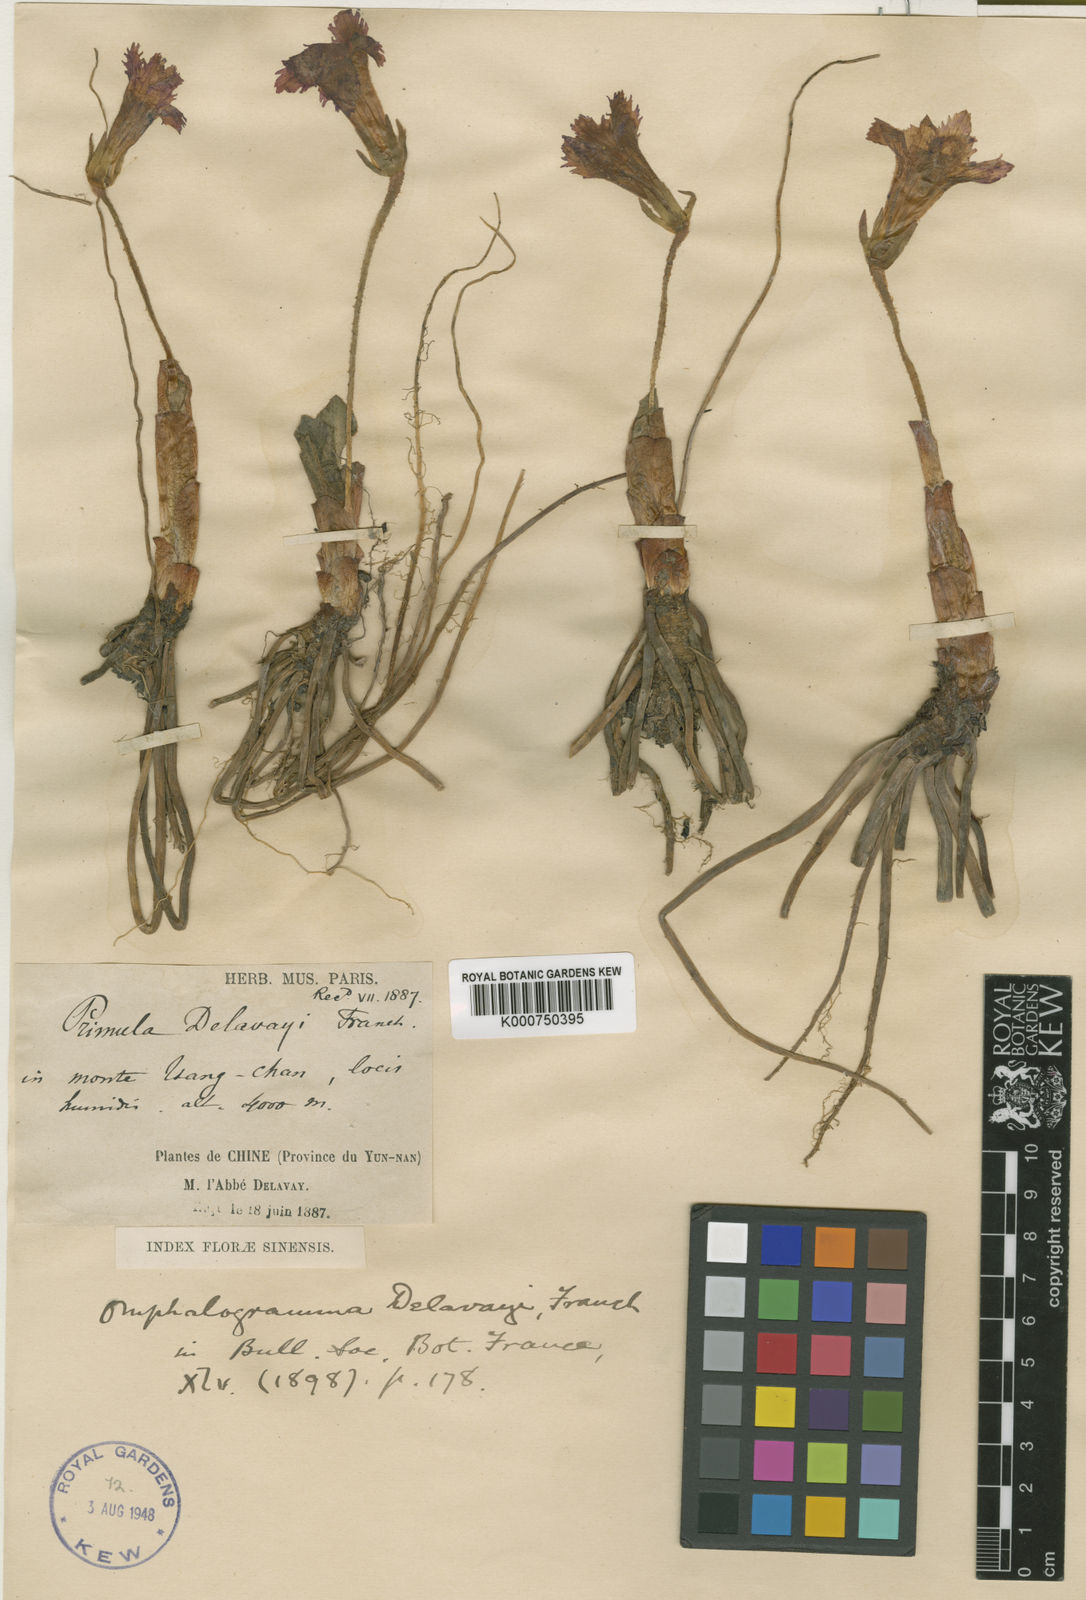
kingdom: Plantae
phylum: Tracheophyta
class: Magnoliopsida
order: Ericales
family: Primulaceae
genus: Omphalogramma
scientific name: Omphalogramma delavayi
